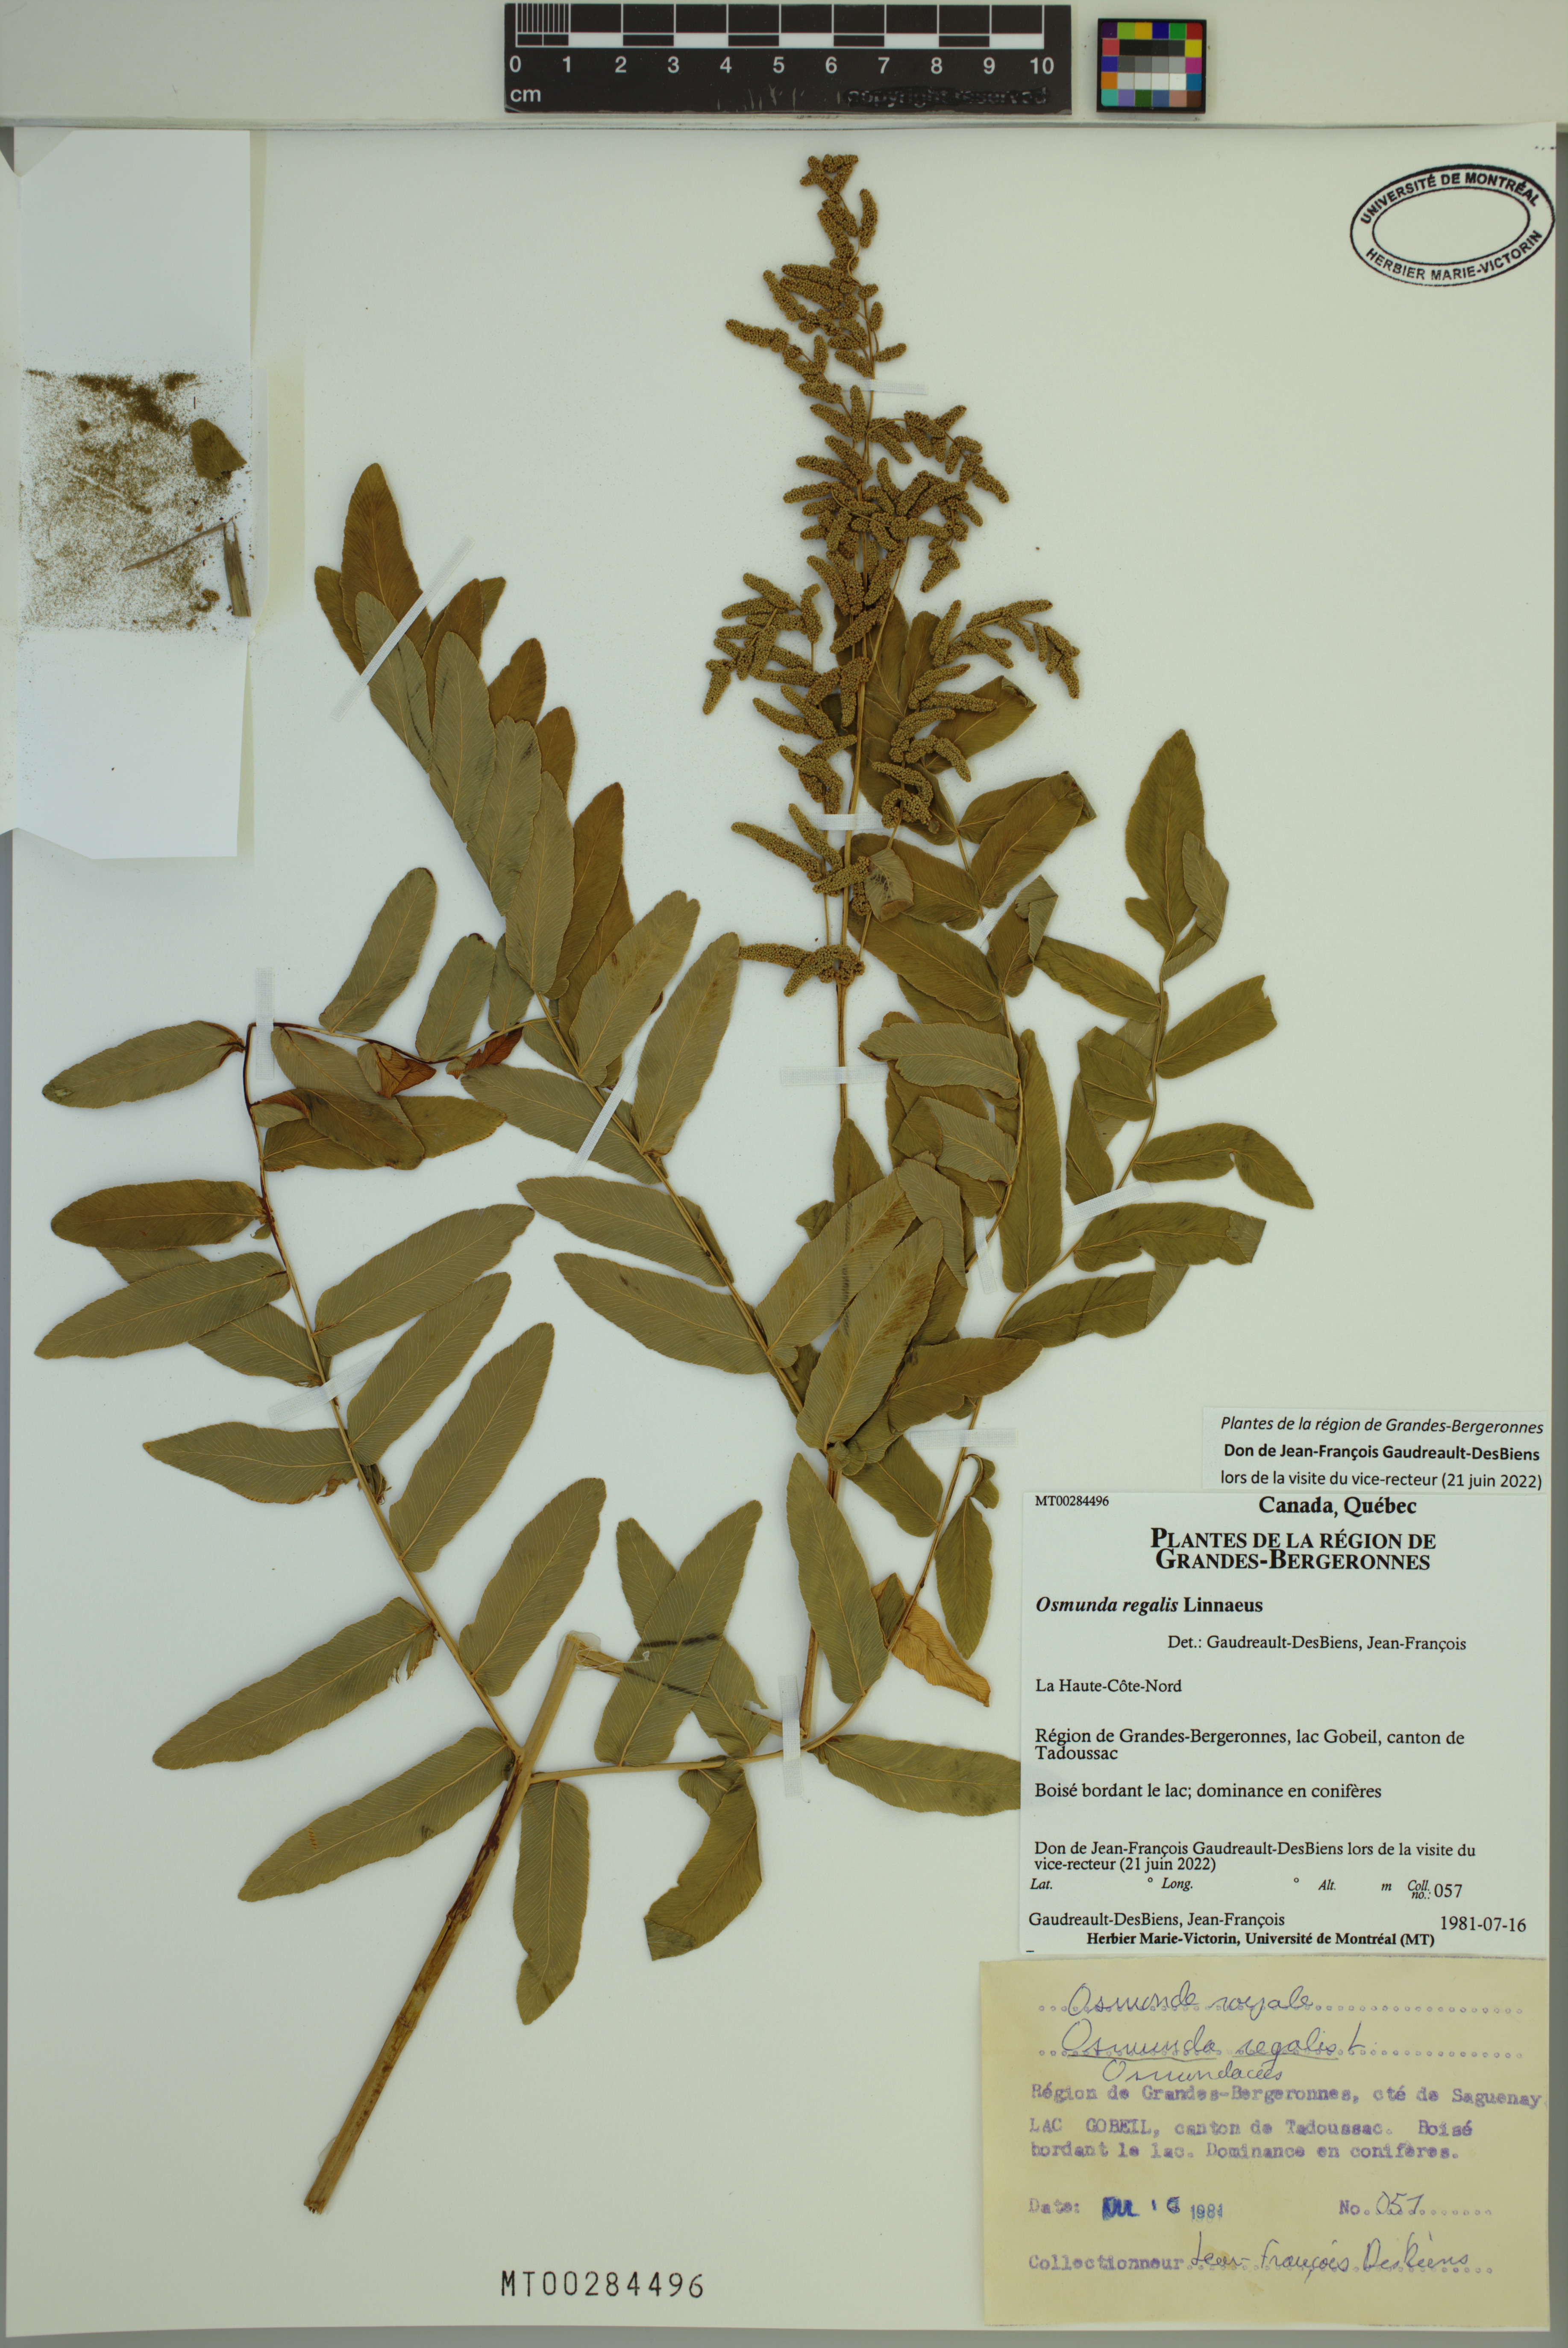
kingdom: Plantae
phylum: Tracheophyta
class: Polypodiopsida
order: Osmundales
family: Osmundaceae
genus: Osmunda
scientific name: Osmunda regalis
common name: Royal fern
